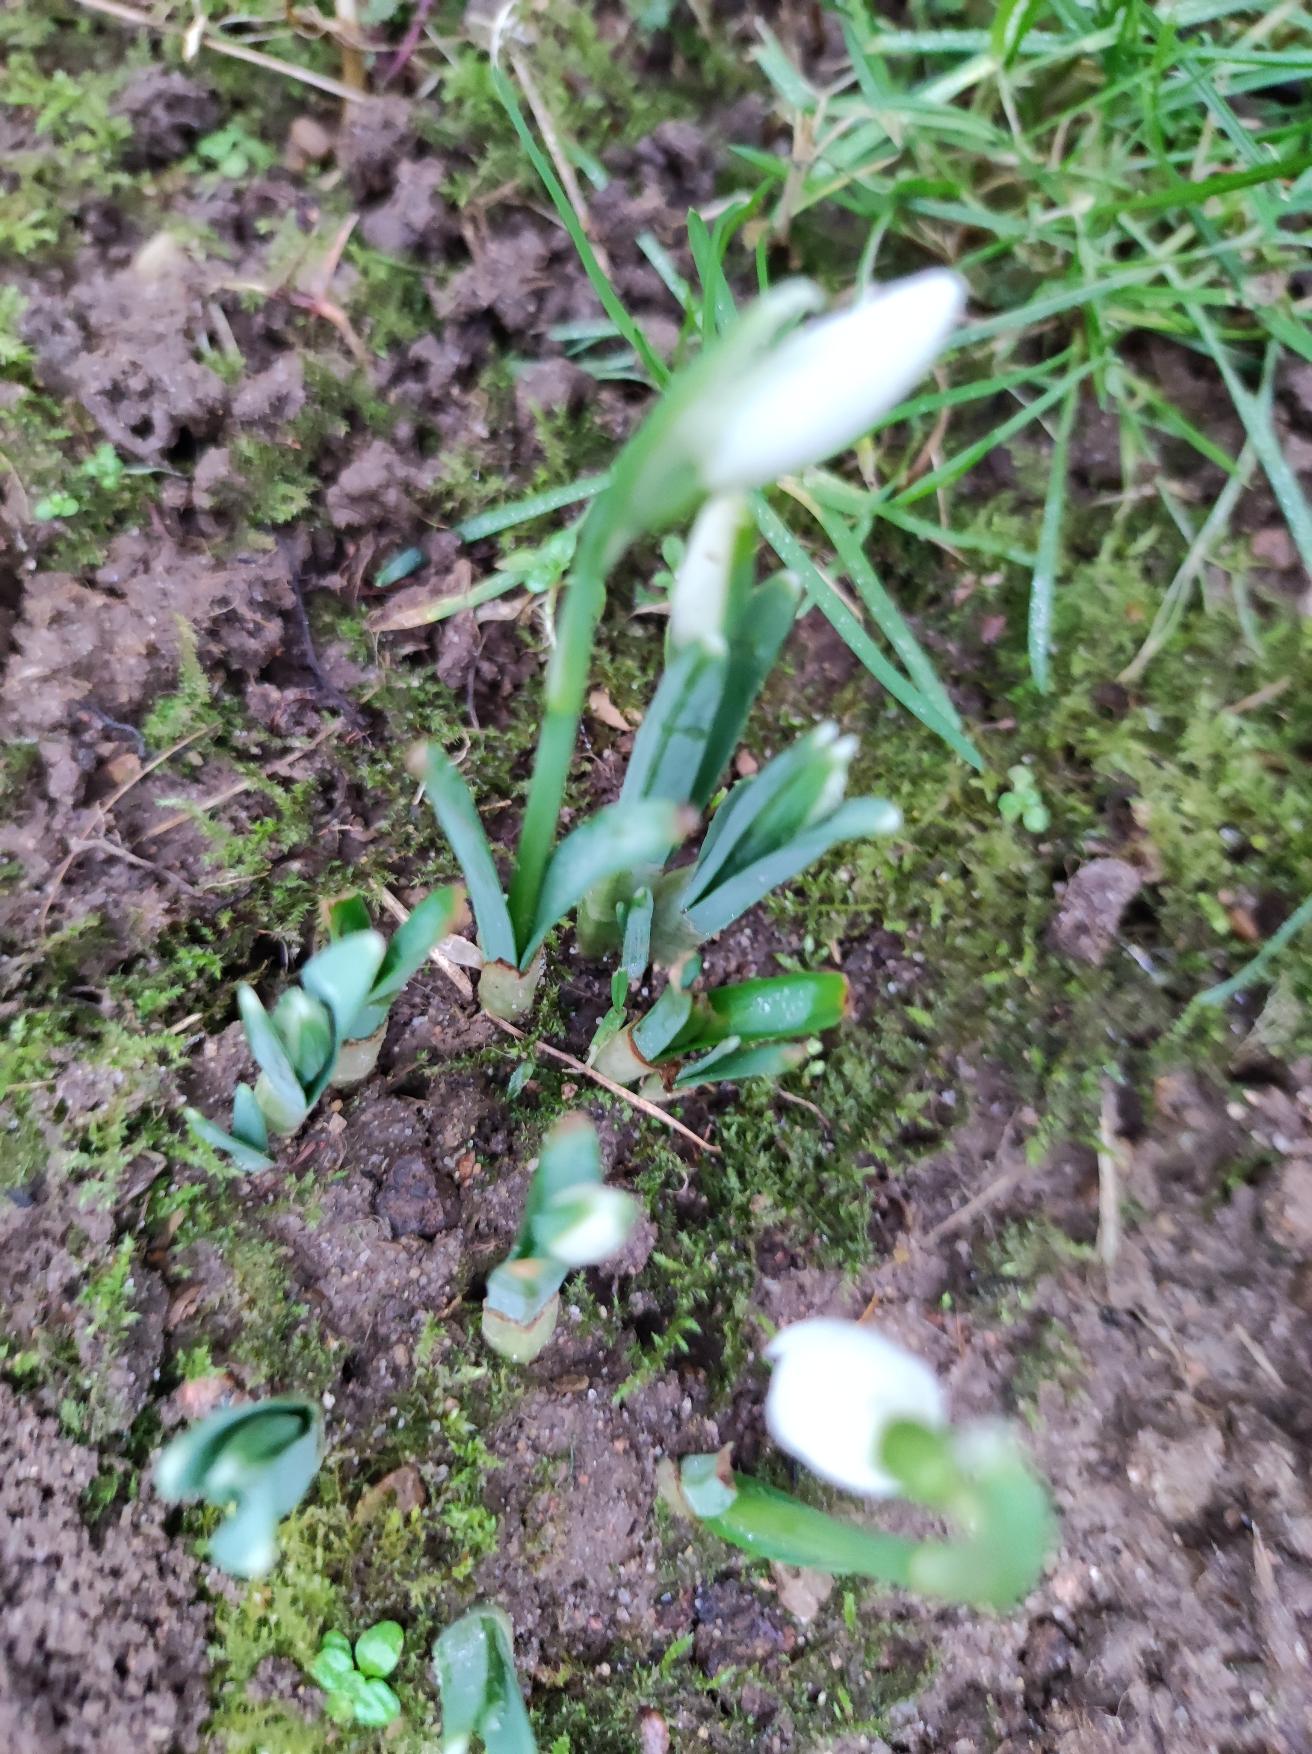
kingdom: Plantae
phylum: Tracheophyta
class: Liliopsida
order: Asparagales
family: Amaryllidaceae
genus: Galanthus
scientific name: Galanthus nivalis
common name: Vintergæk
